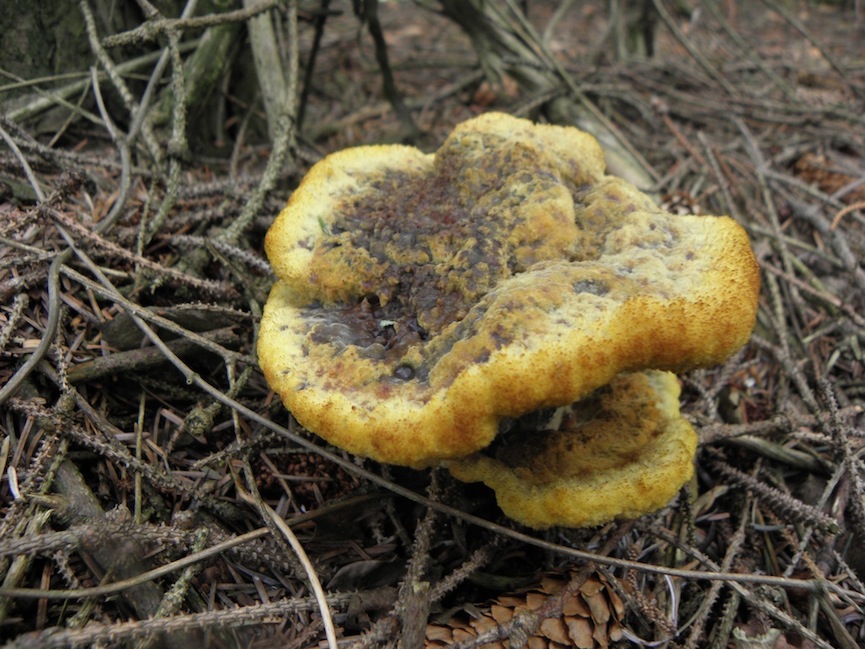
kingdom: Fungi
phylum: Basidiomycota
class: Agaricomycetes
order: Polyporales
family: Laetiporaceae
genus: Phaeolus
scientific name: Phaeolus schweinitzii
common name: brunporesvamp
